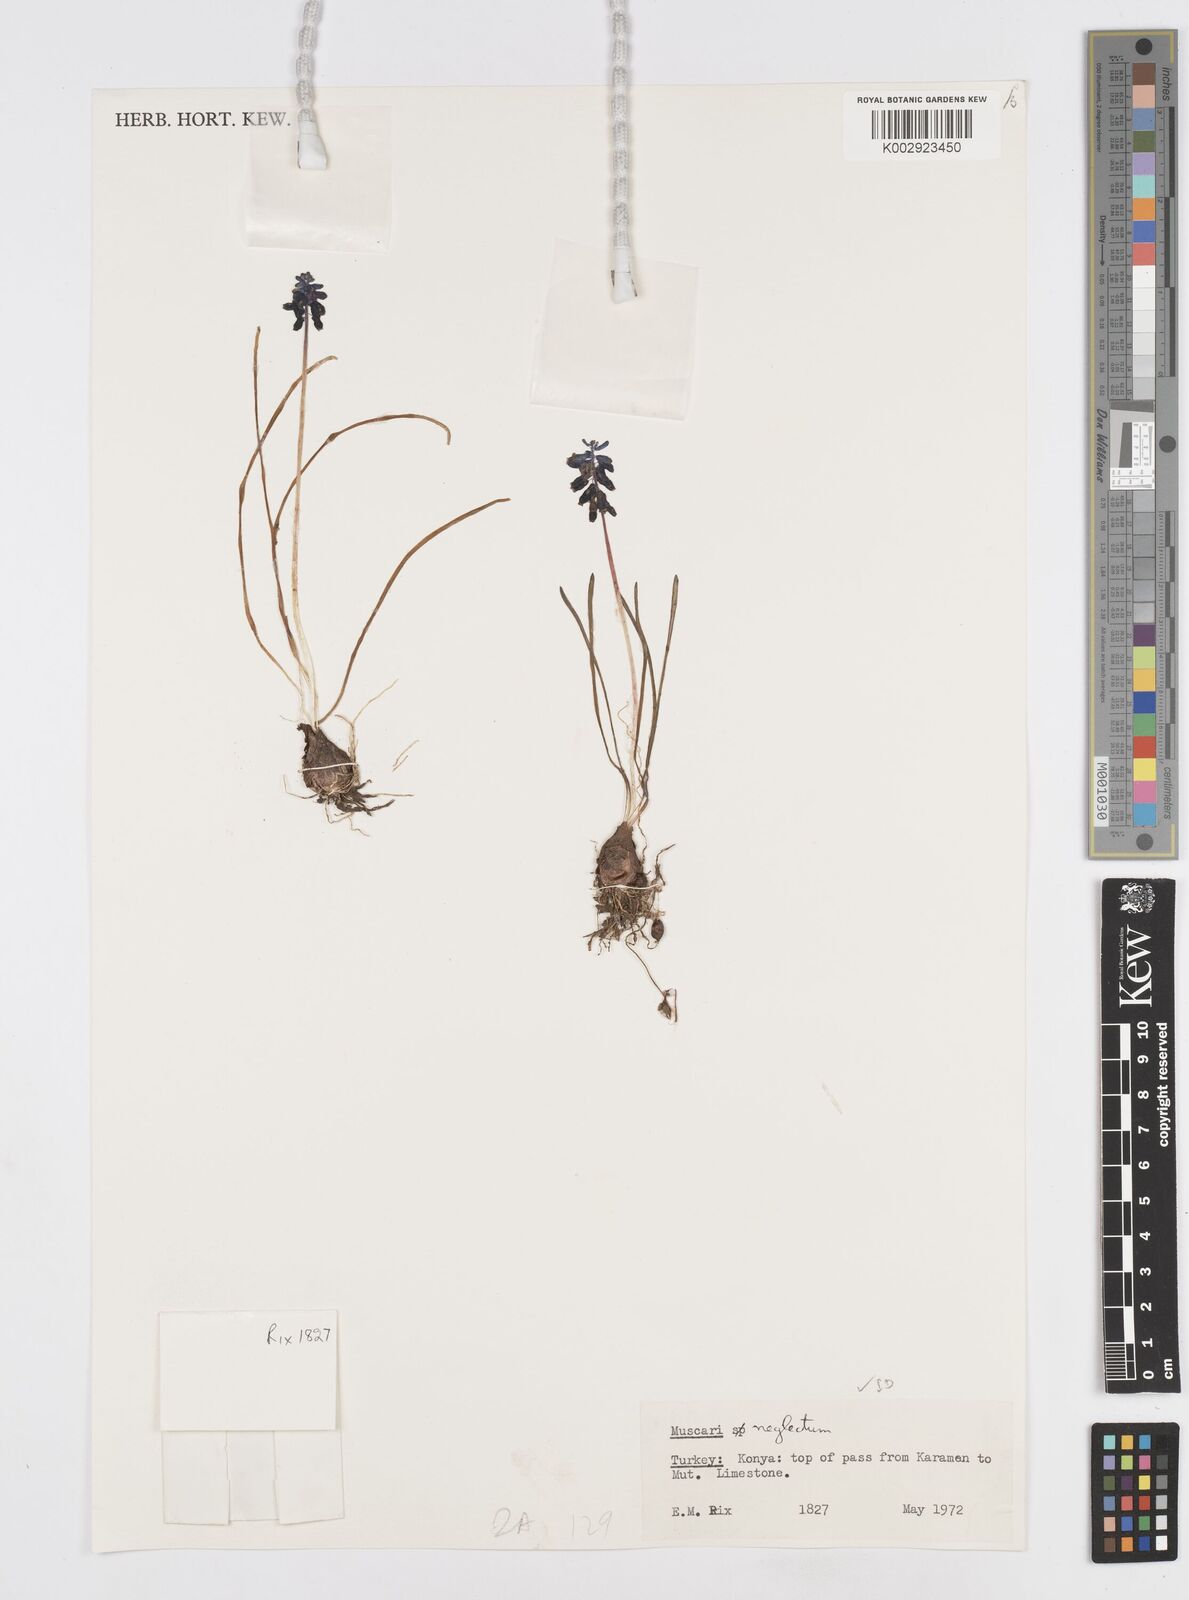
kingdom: Plantae
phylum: Tracheophyta
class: Liliopsida
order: Asparagales
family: Asparagaceae
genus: Muscari
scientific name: Muscari neglectum
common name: Grape-hyacinth
